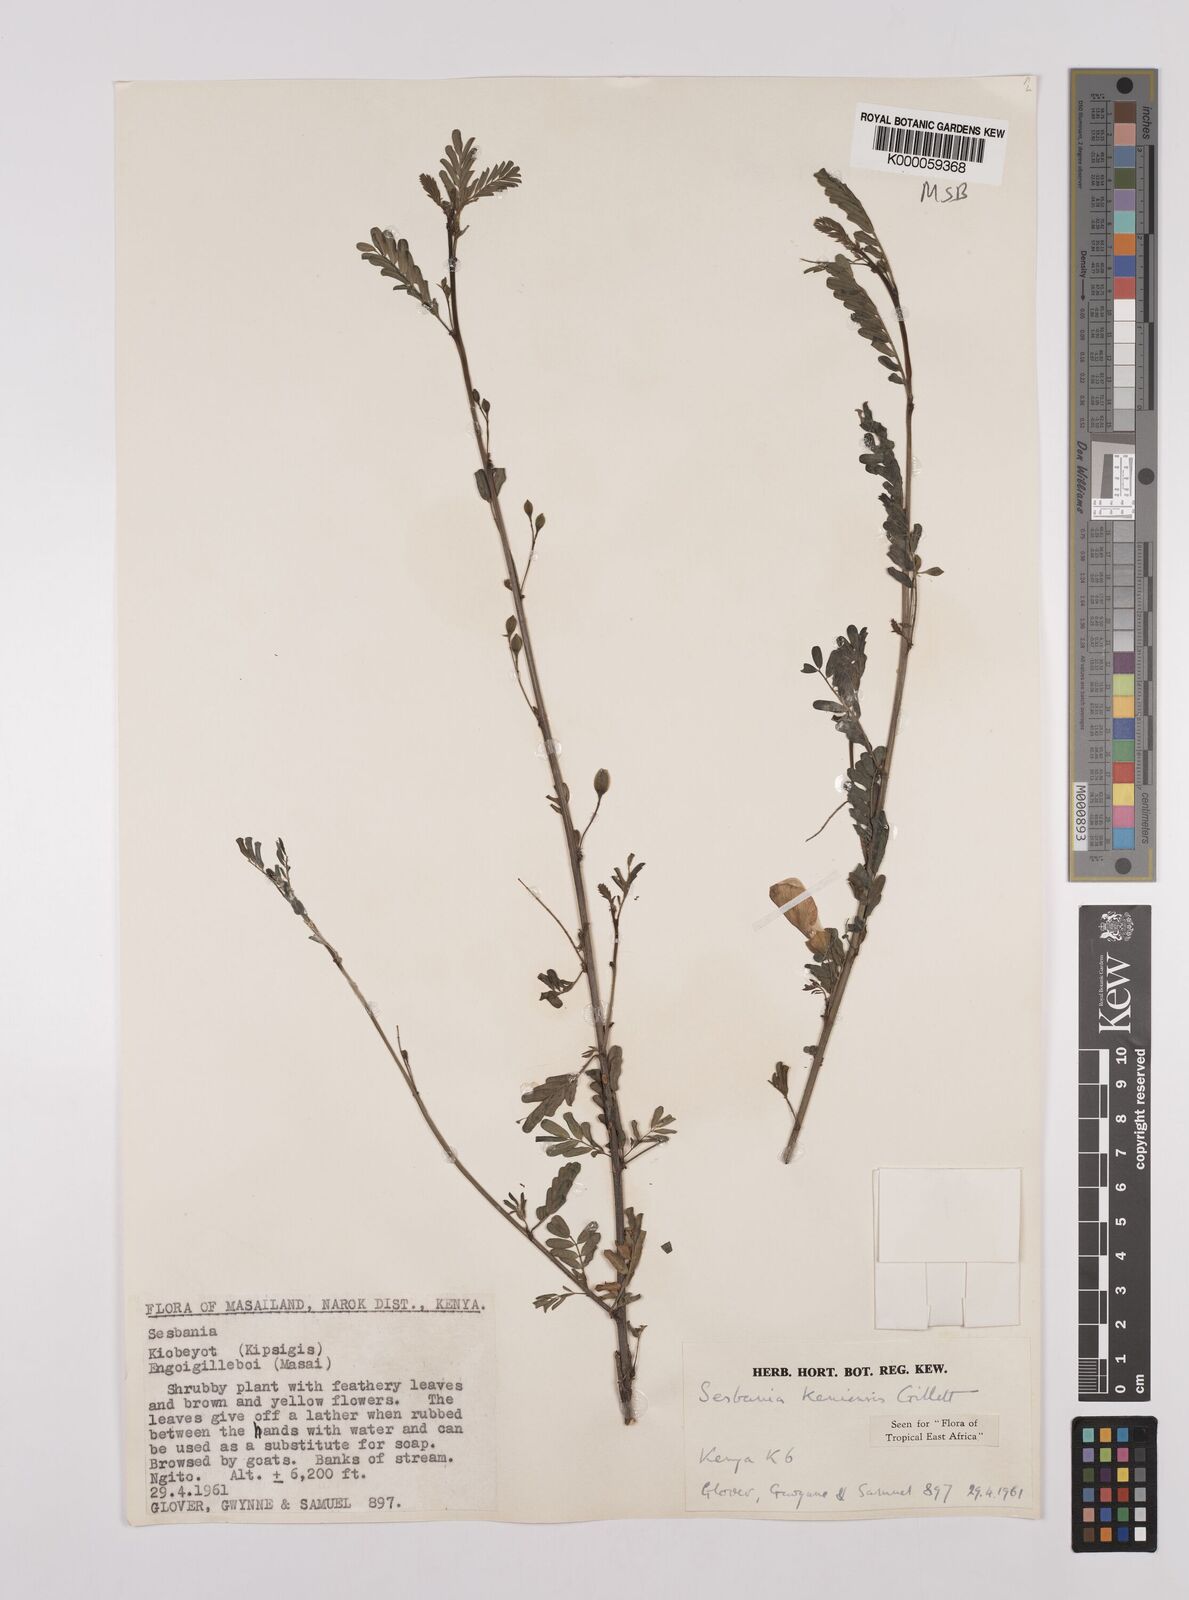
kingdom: Plantae
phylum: Tracheophyta
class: Magnoliopsida
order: Fabales
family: Fabaceae
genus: Sesbania
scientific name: Sesbania keniensis
